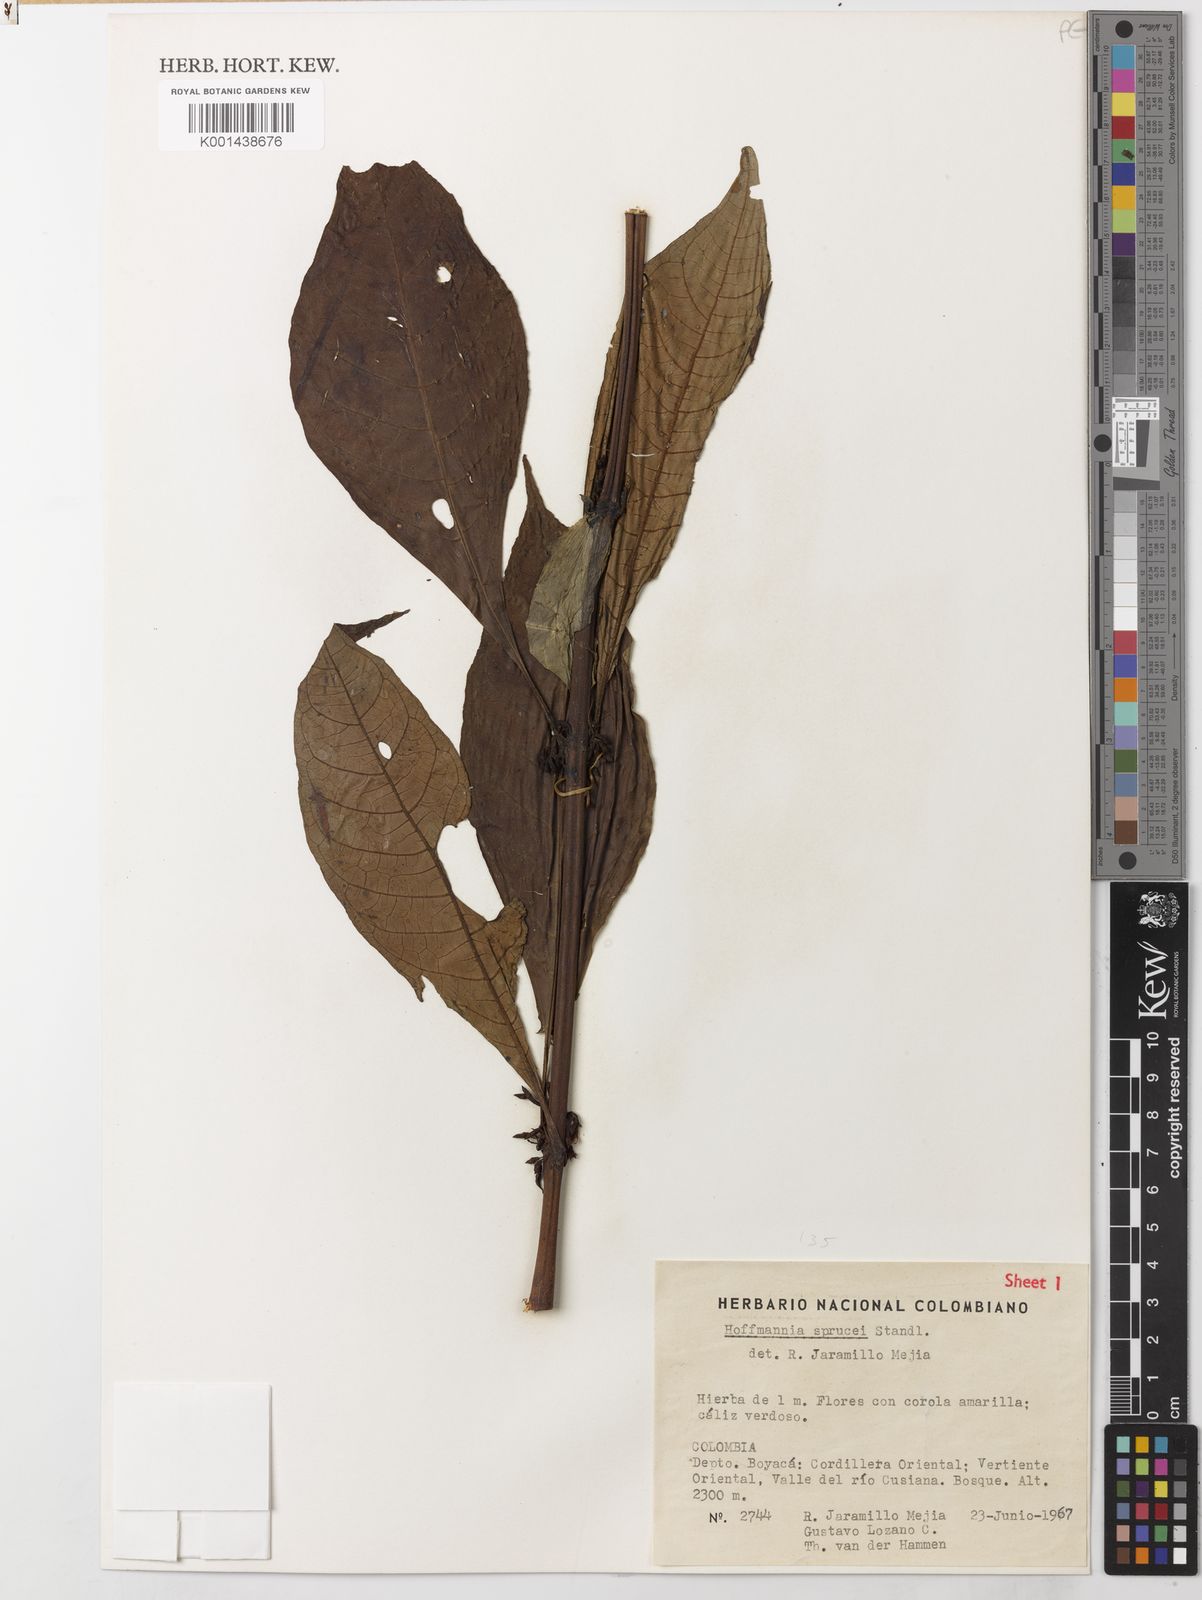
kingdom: Plantae
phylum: Tracheophyta
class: Magnoliopsida
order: Gentianales
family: Rubiaceae
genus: Hoffmannia
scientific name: Hoffmannia sprucei
